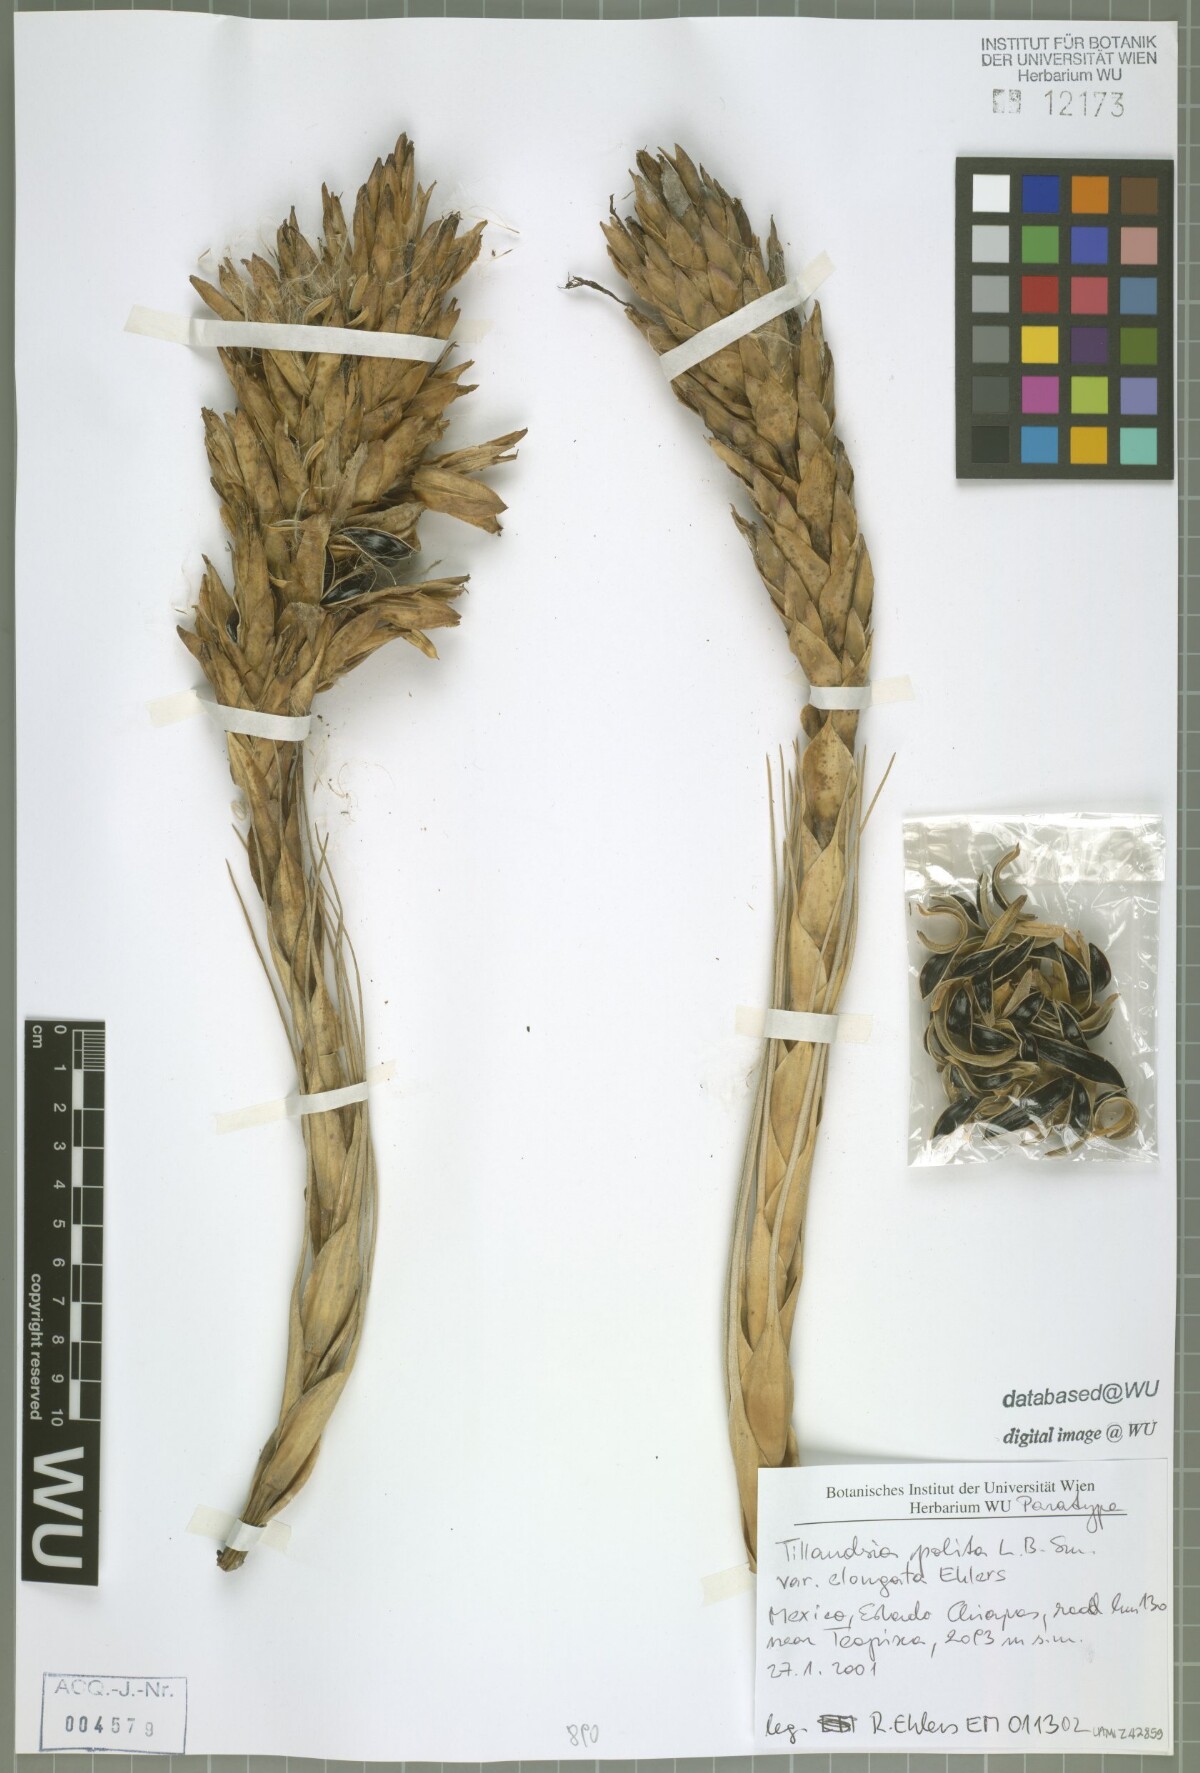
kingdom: Plantae
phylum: Tracheophyta
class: Liliopsida
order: Poales
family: Bromeliaceae
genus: Tillandsia
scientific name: Tillandsia polita
